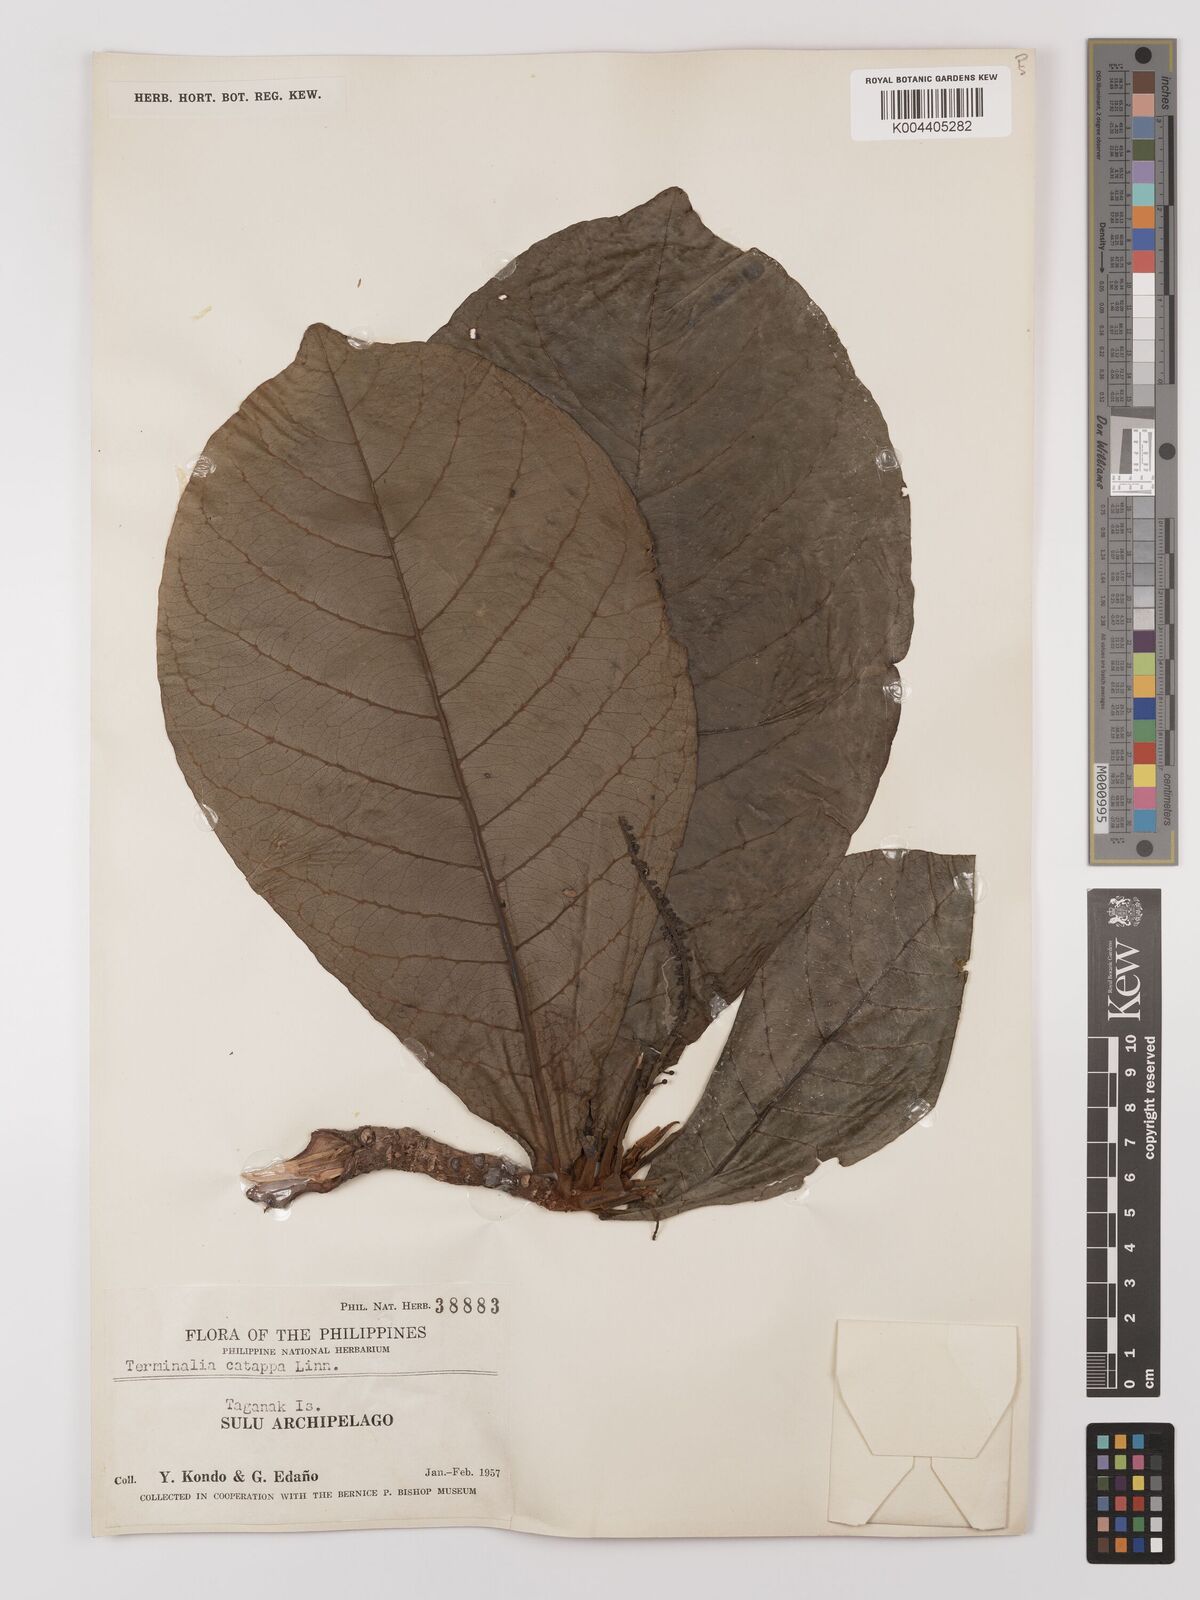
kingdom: Plantae
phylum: Tracheophyta
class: Magnoliopsida
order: Myrtales
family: Combretaceae
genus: Terminalia
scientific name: Terminalia catappa
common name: Tropical almond
